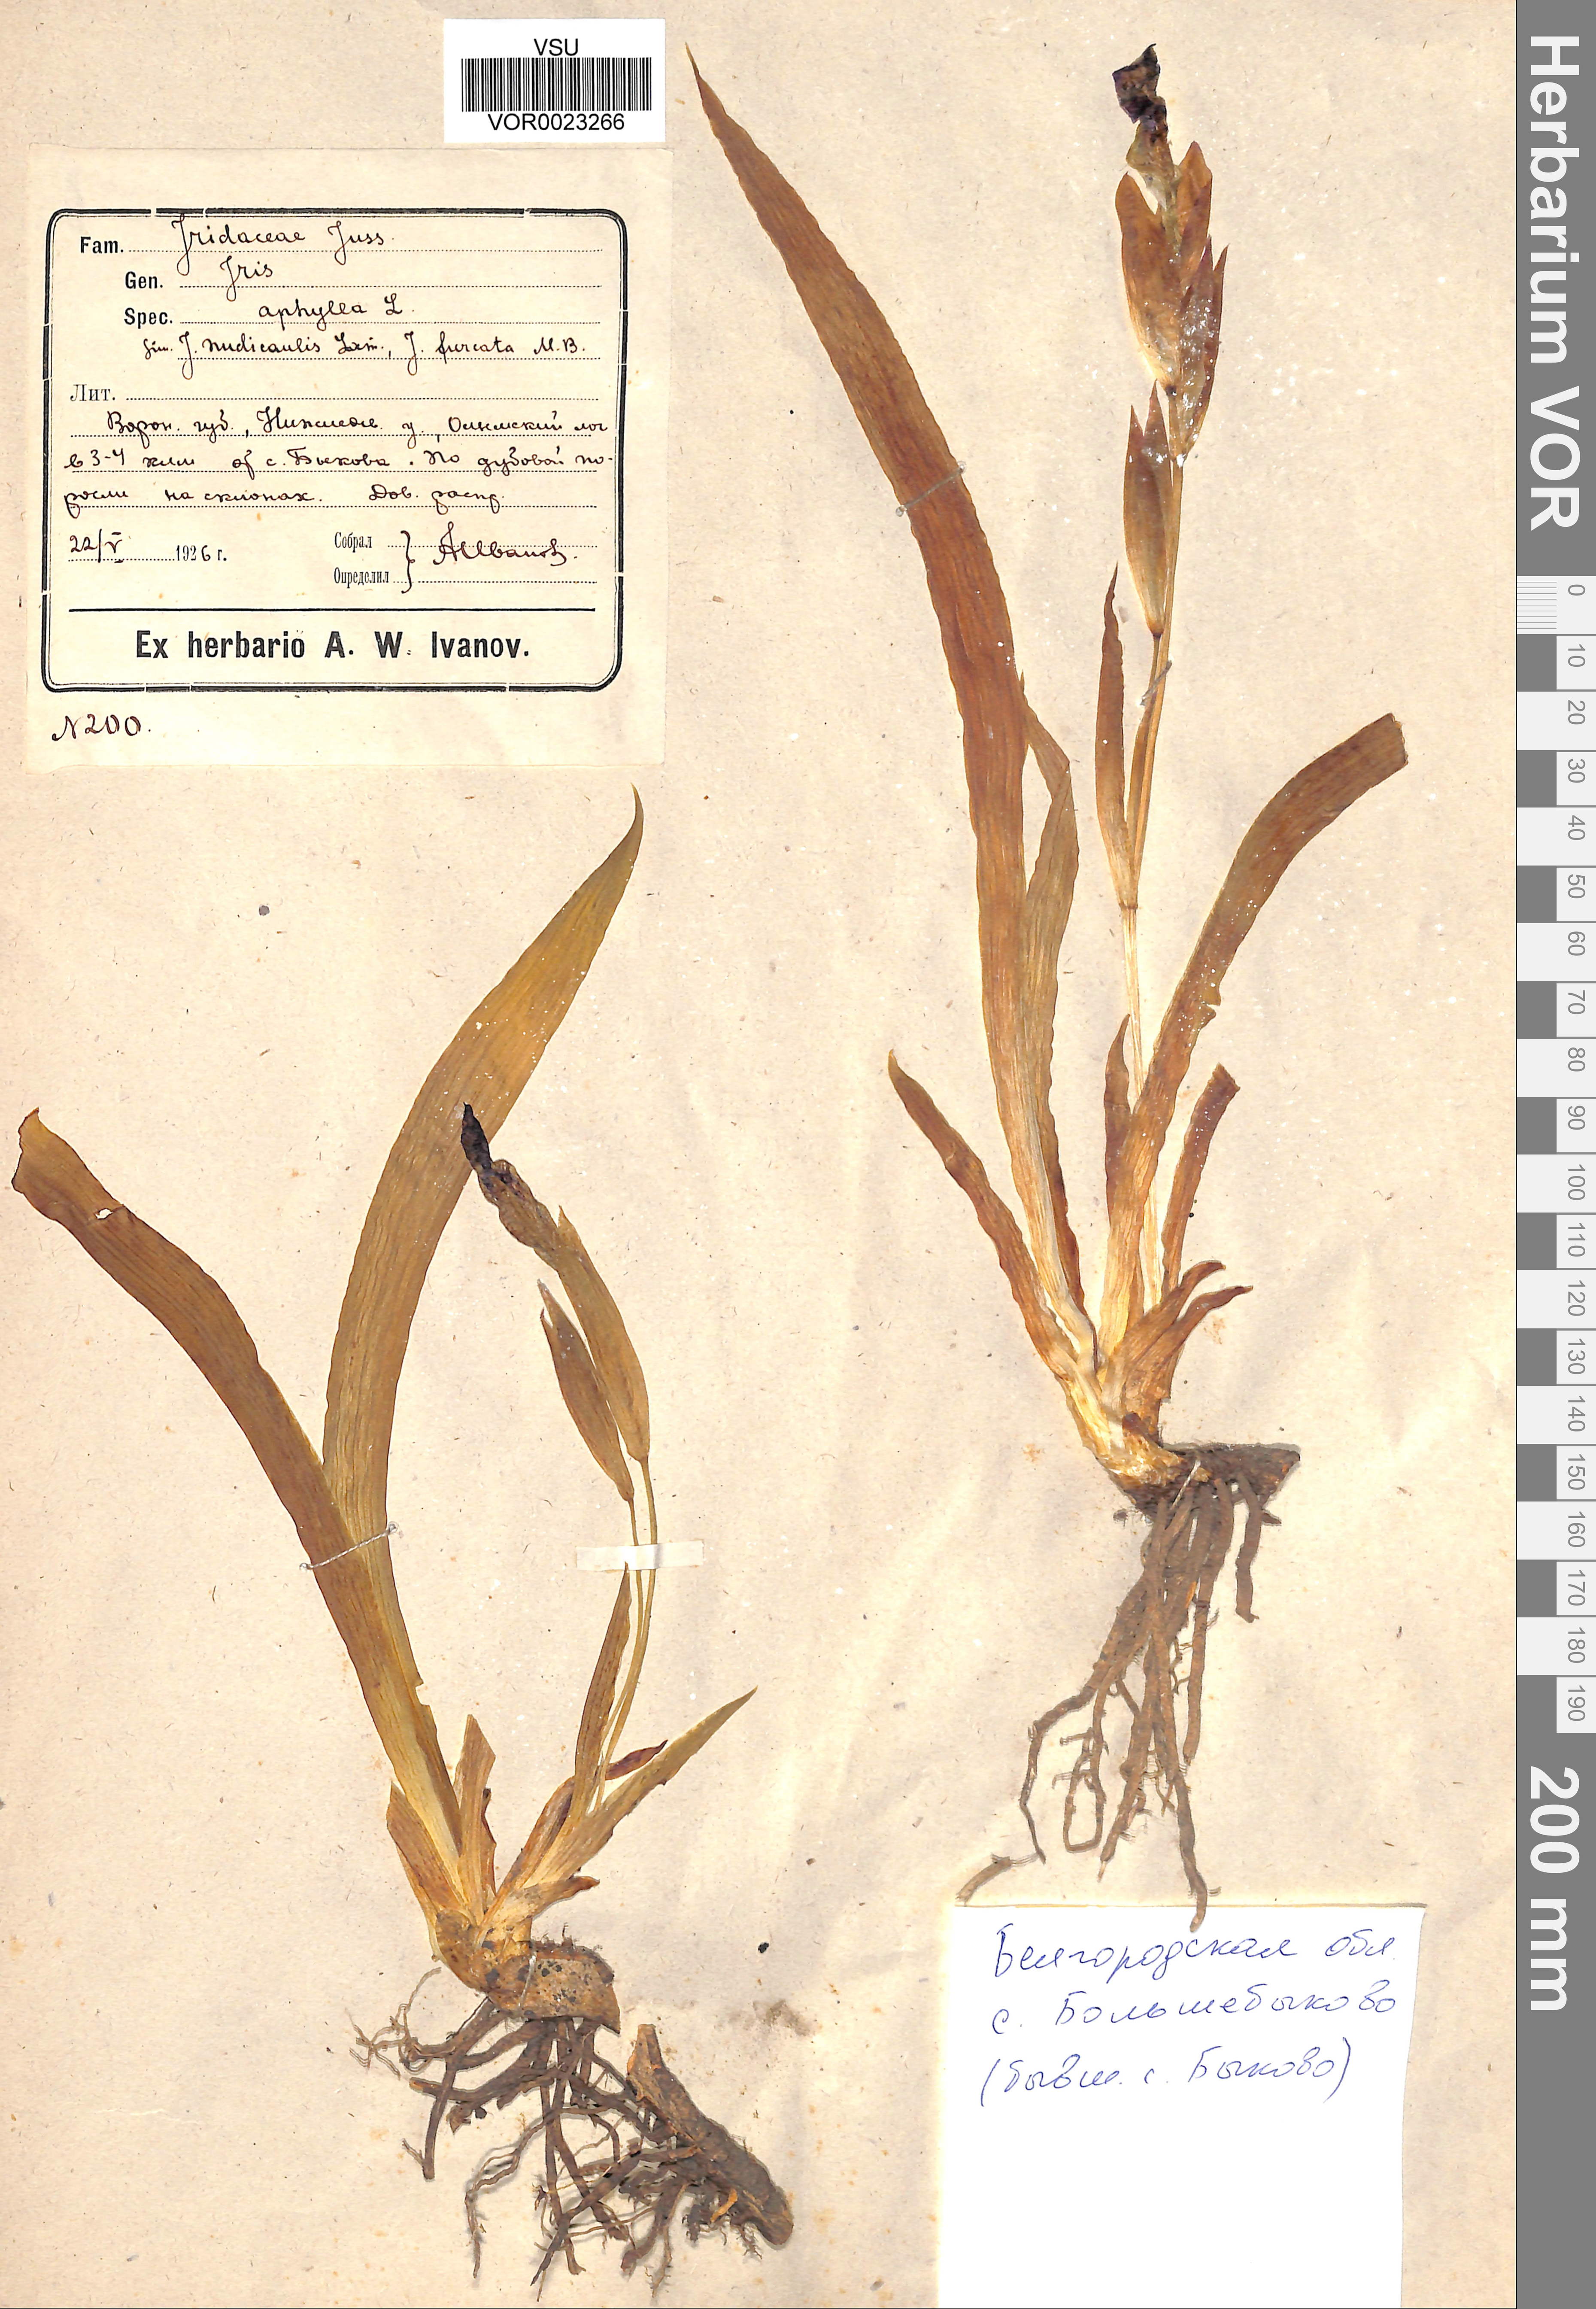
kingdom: Plantae
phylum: Tracheophyta
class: Liliopsida
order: Asparagales
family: Iridaceae
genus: Iris
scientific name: Iris aphylla
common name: Stool iris
